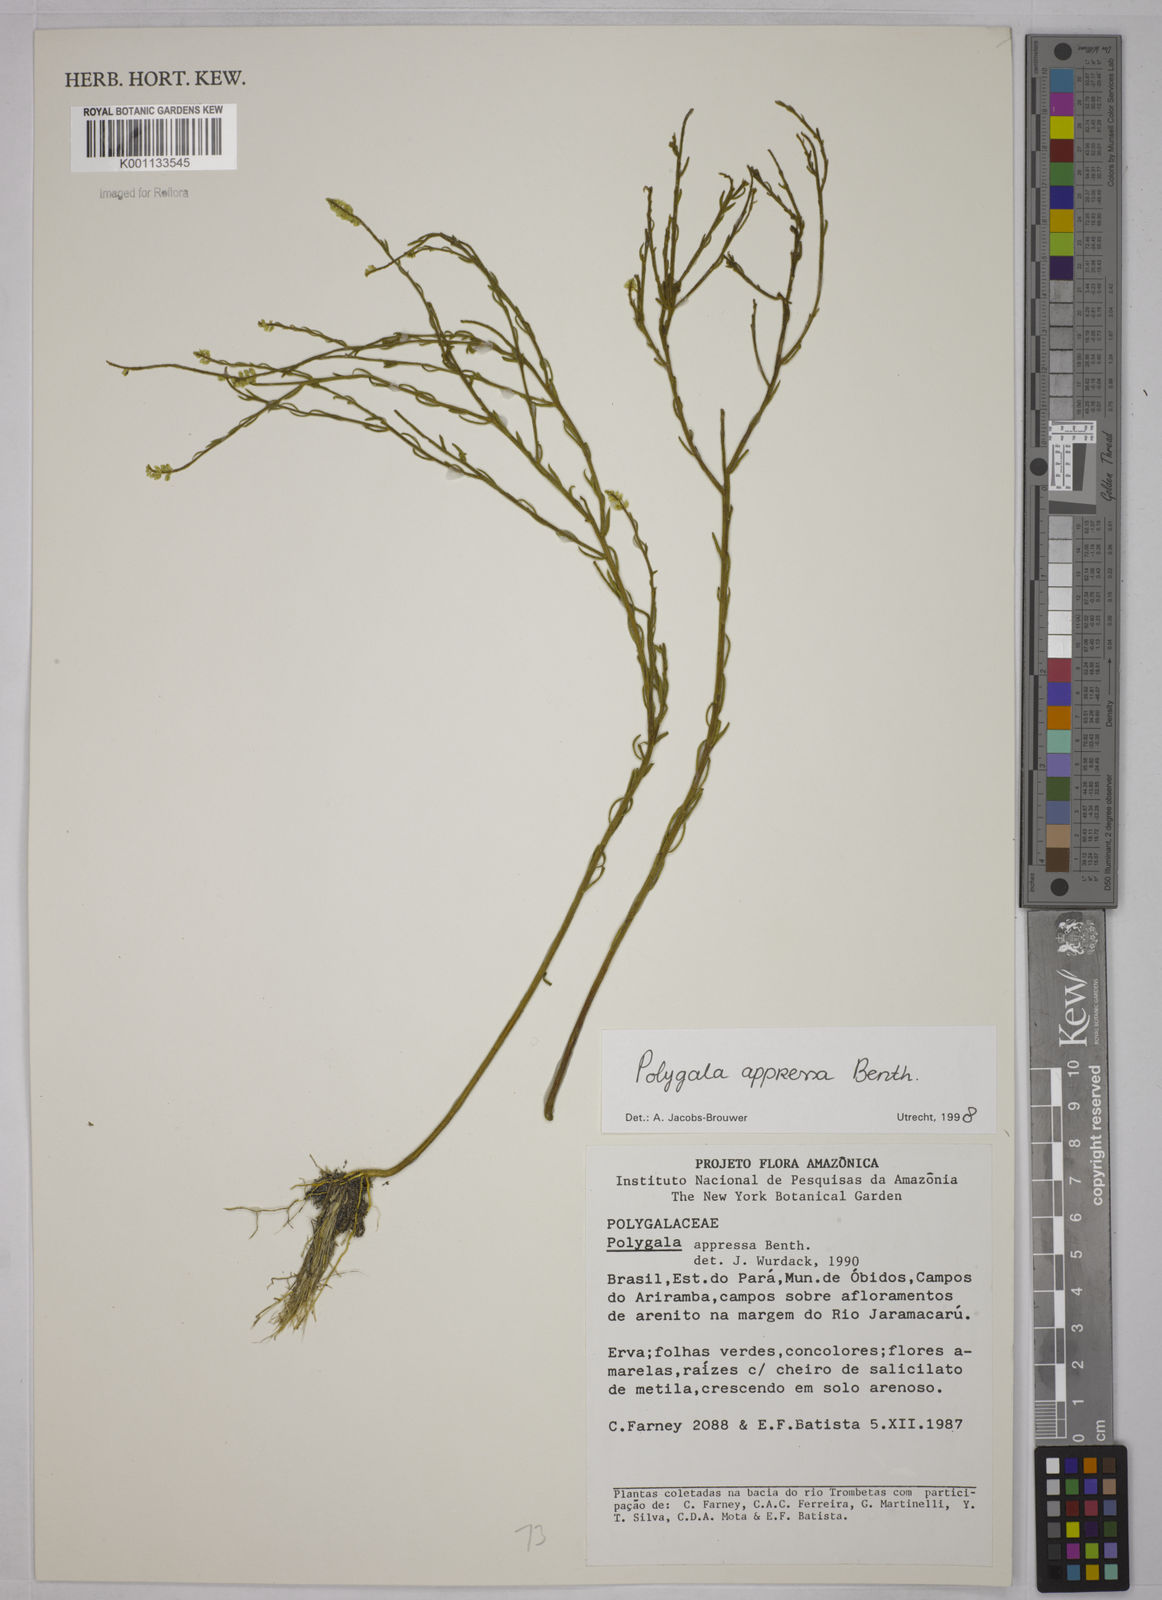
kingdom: Plantae
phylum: Tracheophyta
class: Magnoliopsida
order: Fabales
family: Polygalaceae
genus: Polygala
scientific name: Polygala appressa
